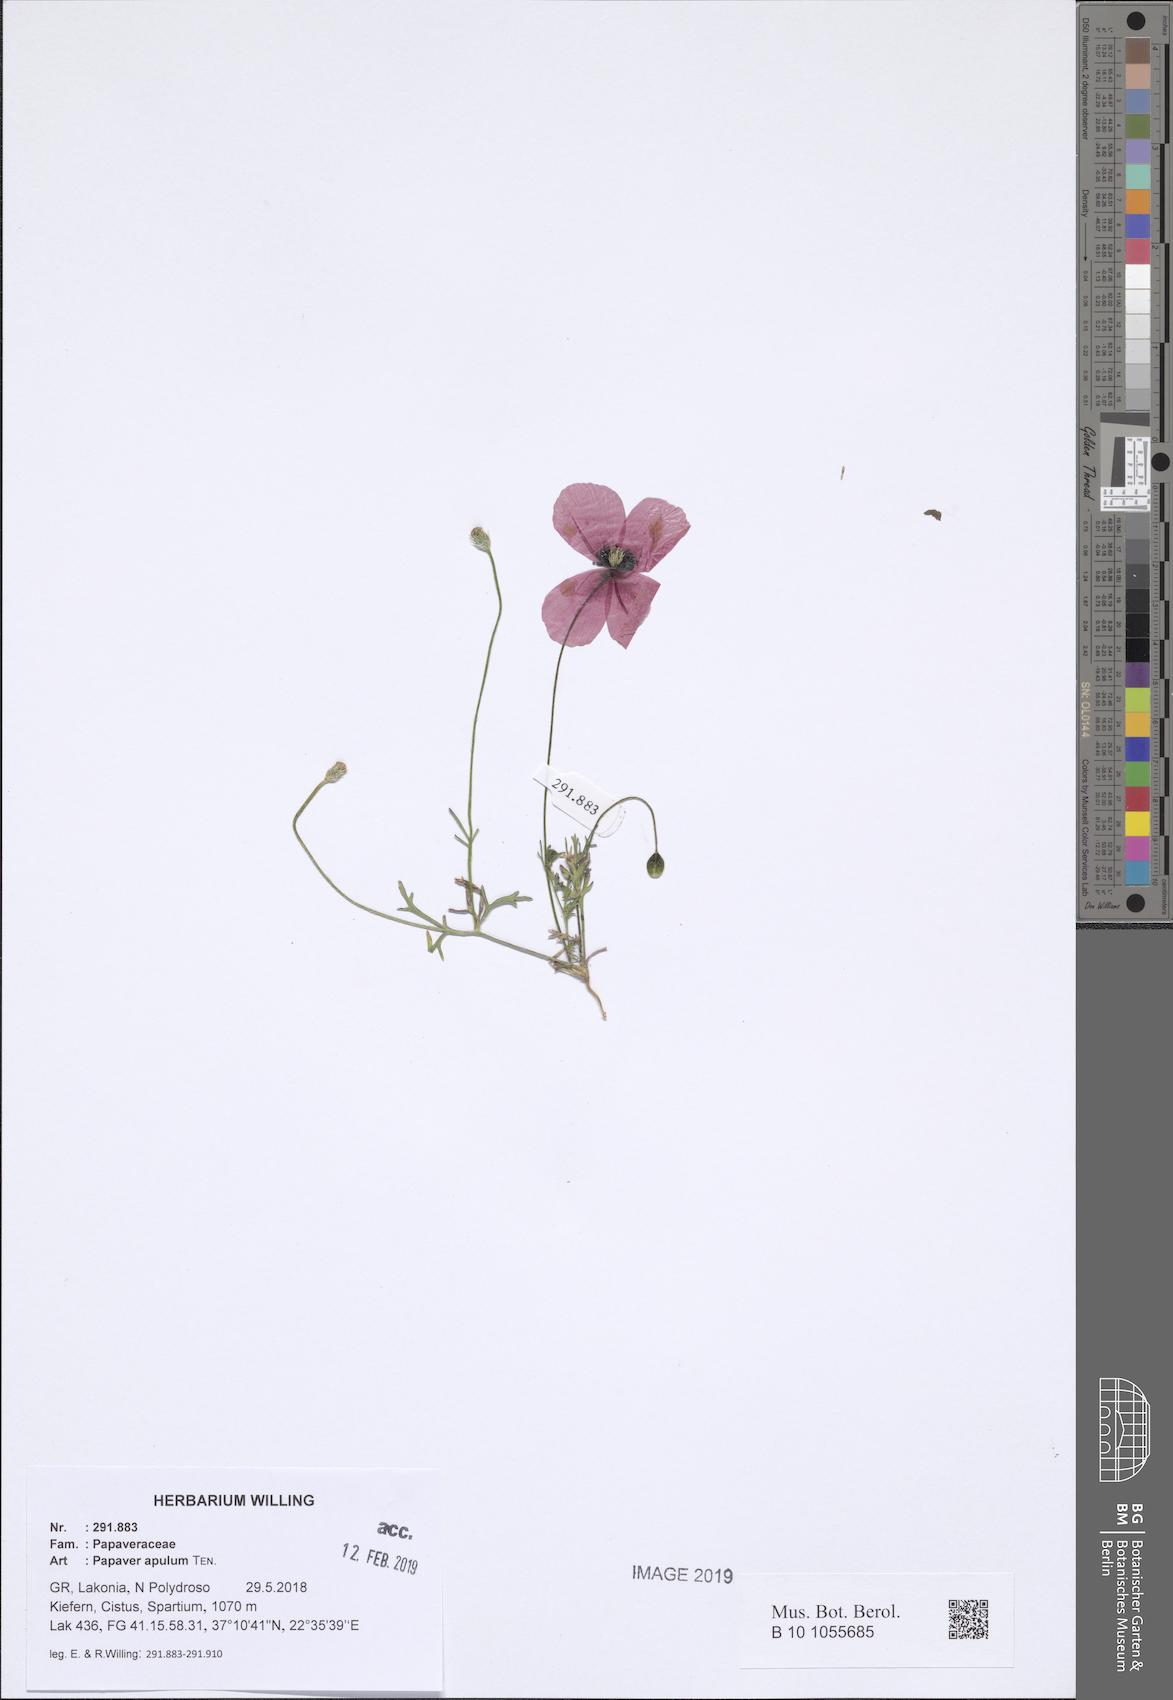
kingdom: Plantae
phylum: Tracheophyta
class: Magnoliopsida
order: Ranunculales
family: Papaveraceae
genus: Roemeria
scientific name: Roemeria apula
